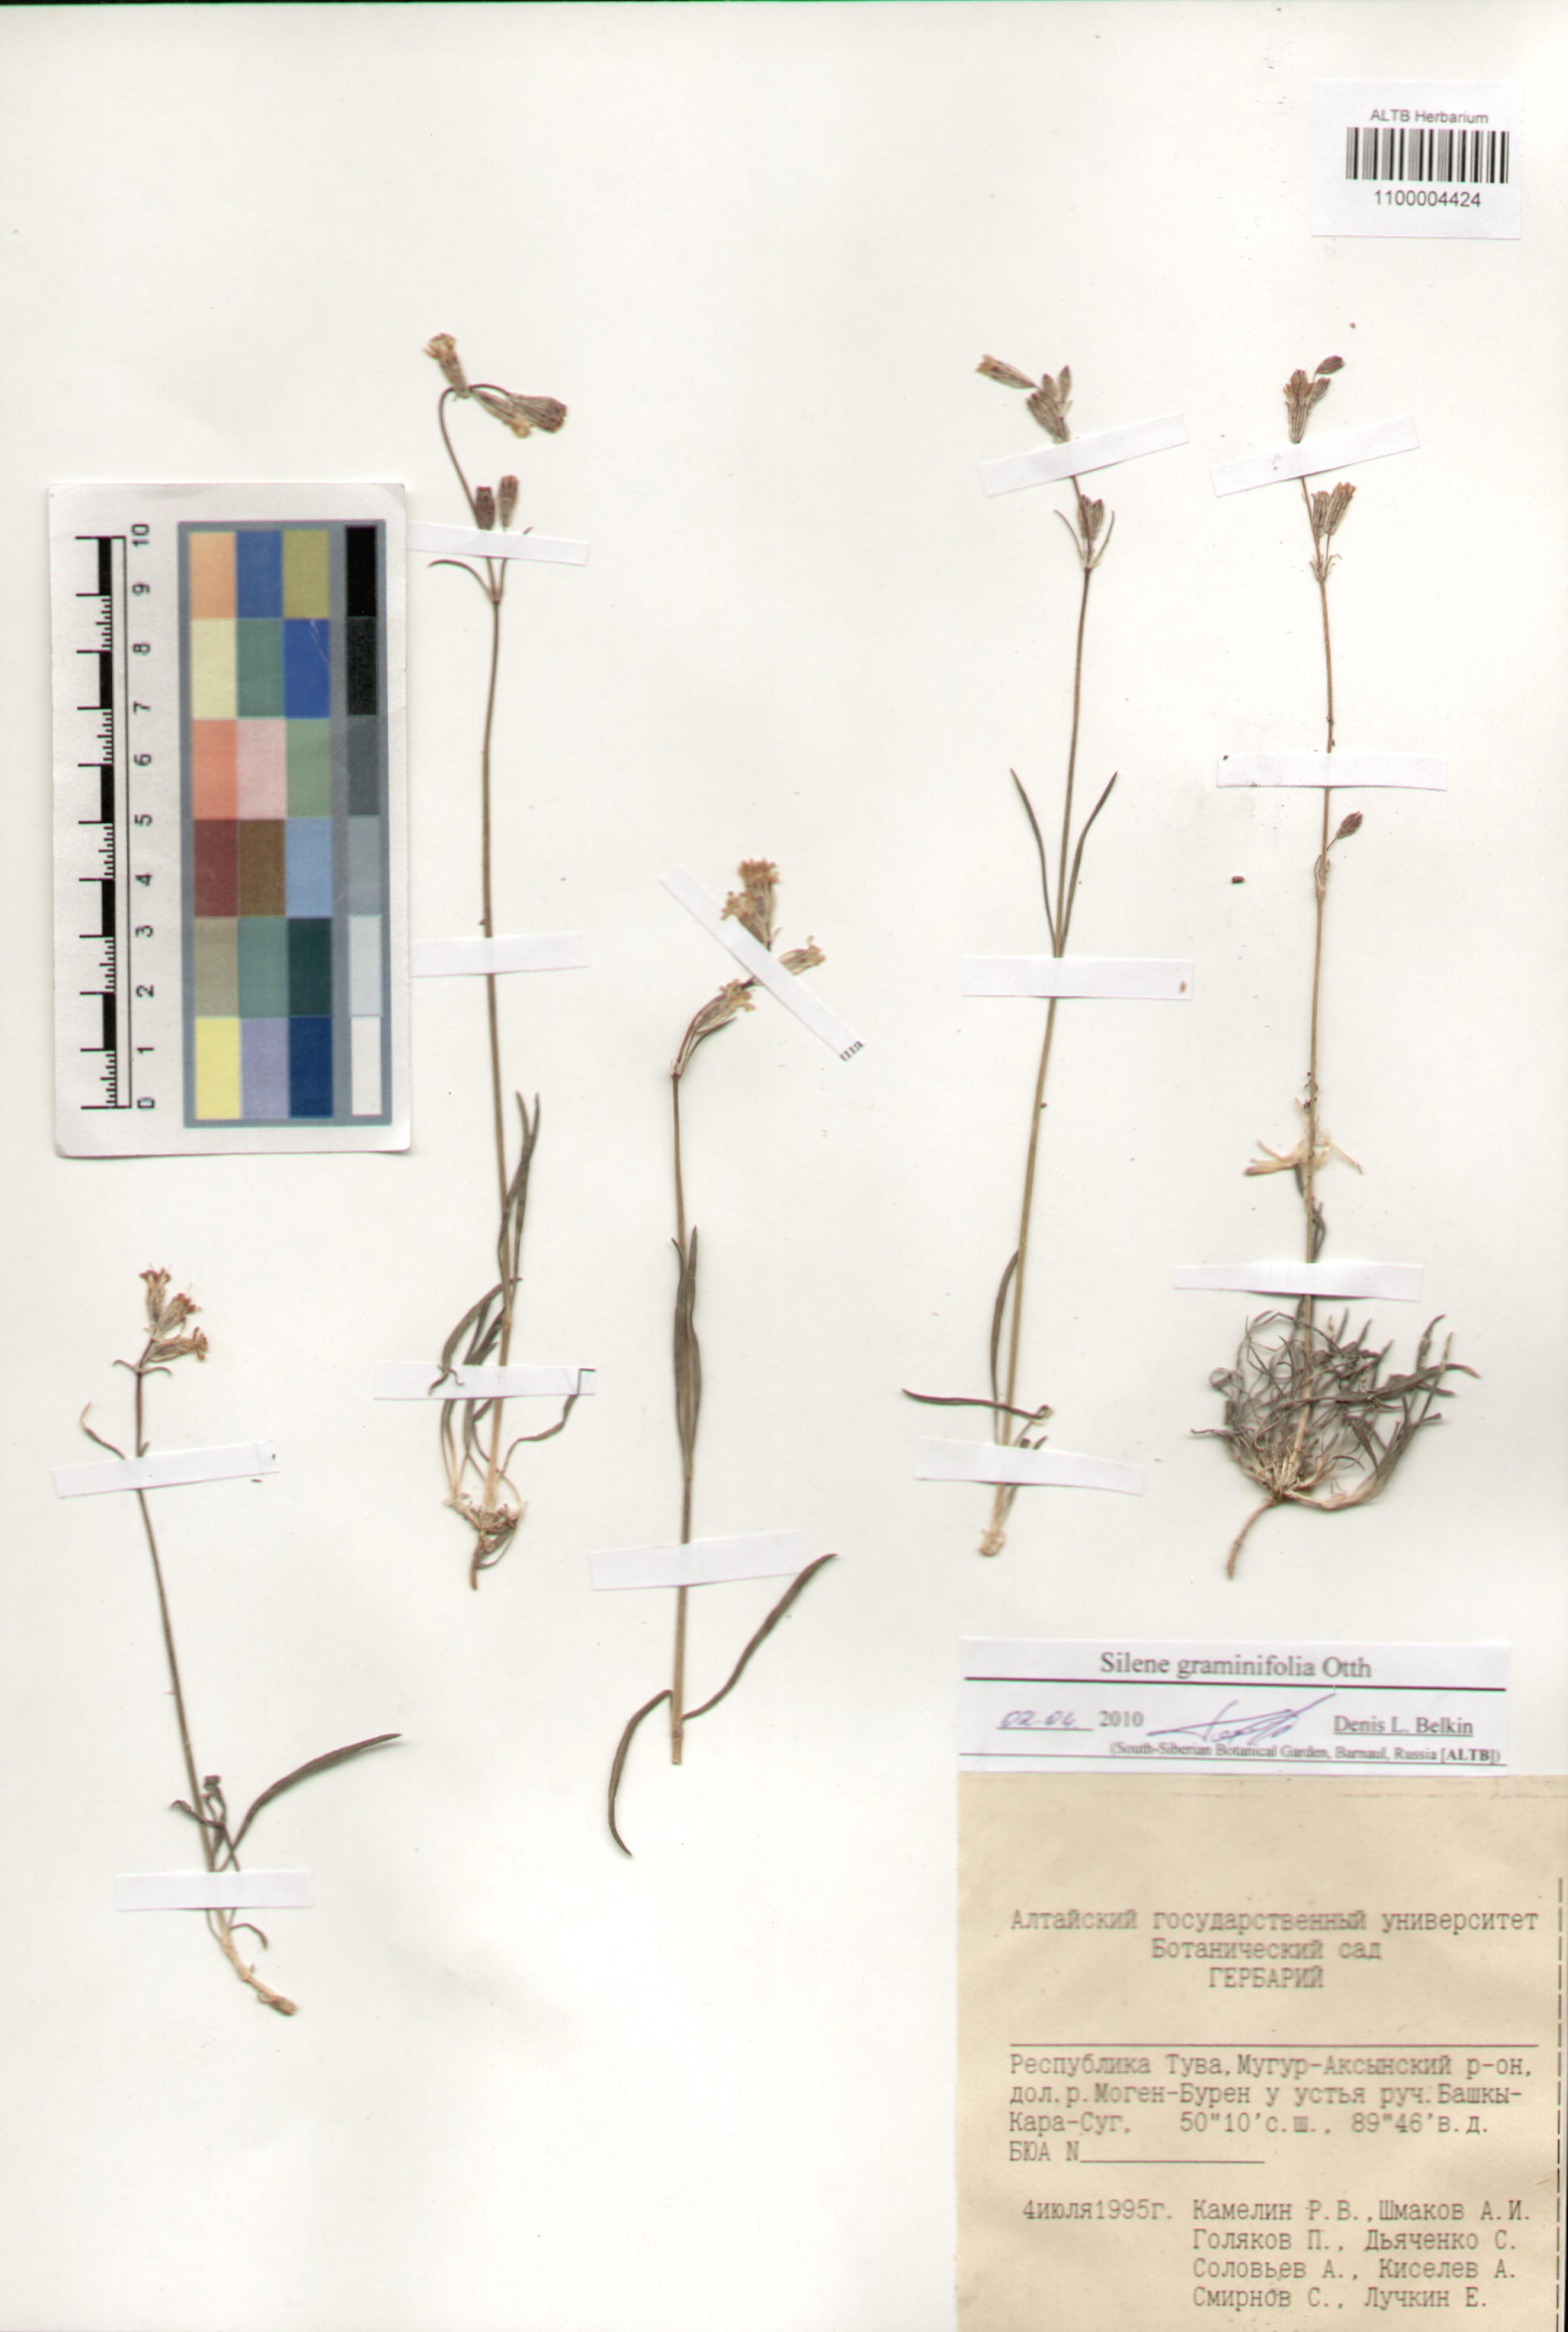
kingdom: Plantae
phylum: Tracheophyta
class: Magnoliopsida
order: Caryophyllales
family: Caryophyllaceae
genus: Silene
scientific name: Silene graminifolia
